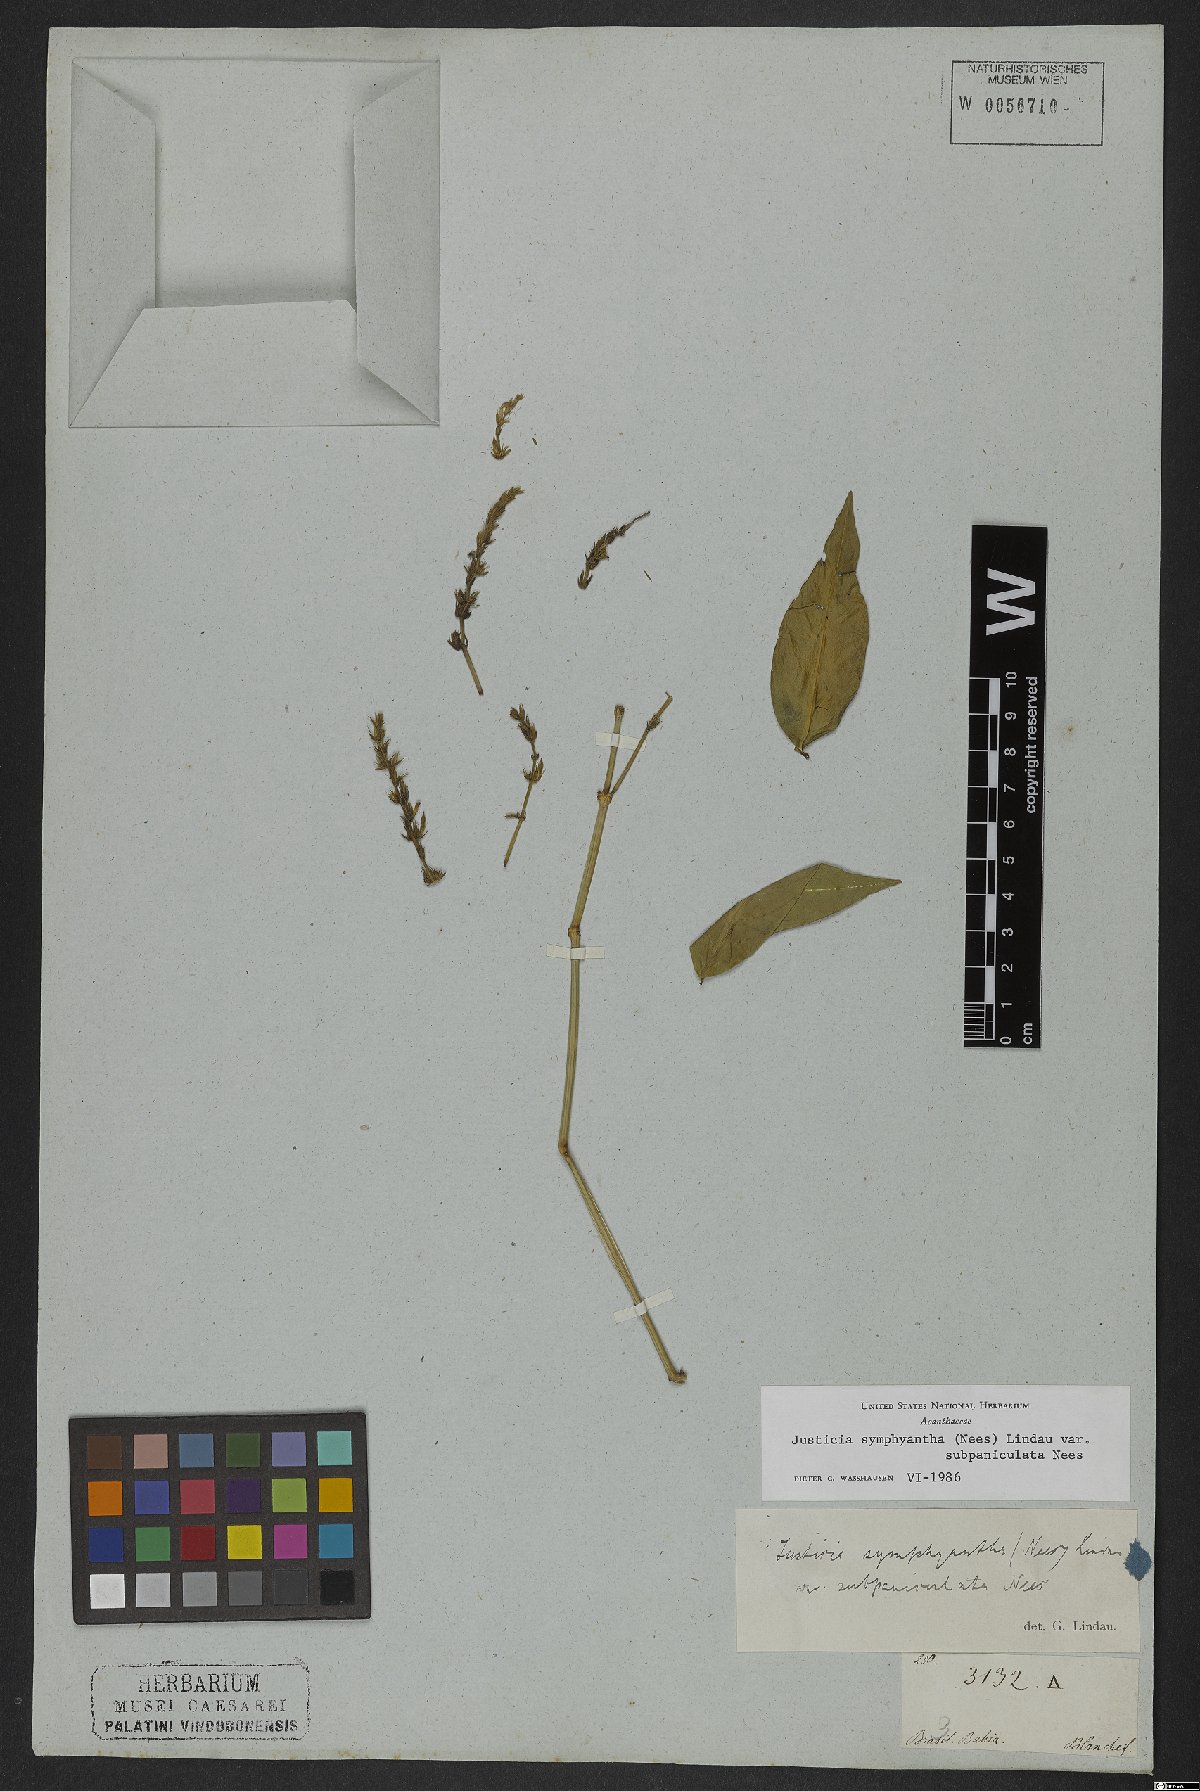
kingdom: Plantae
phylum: Tracheophyta
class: Magnoliopsida
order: Lamiales
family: Acanthaceae
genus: Justicia
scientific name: Justicia symphyantha
